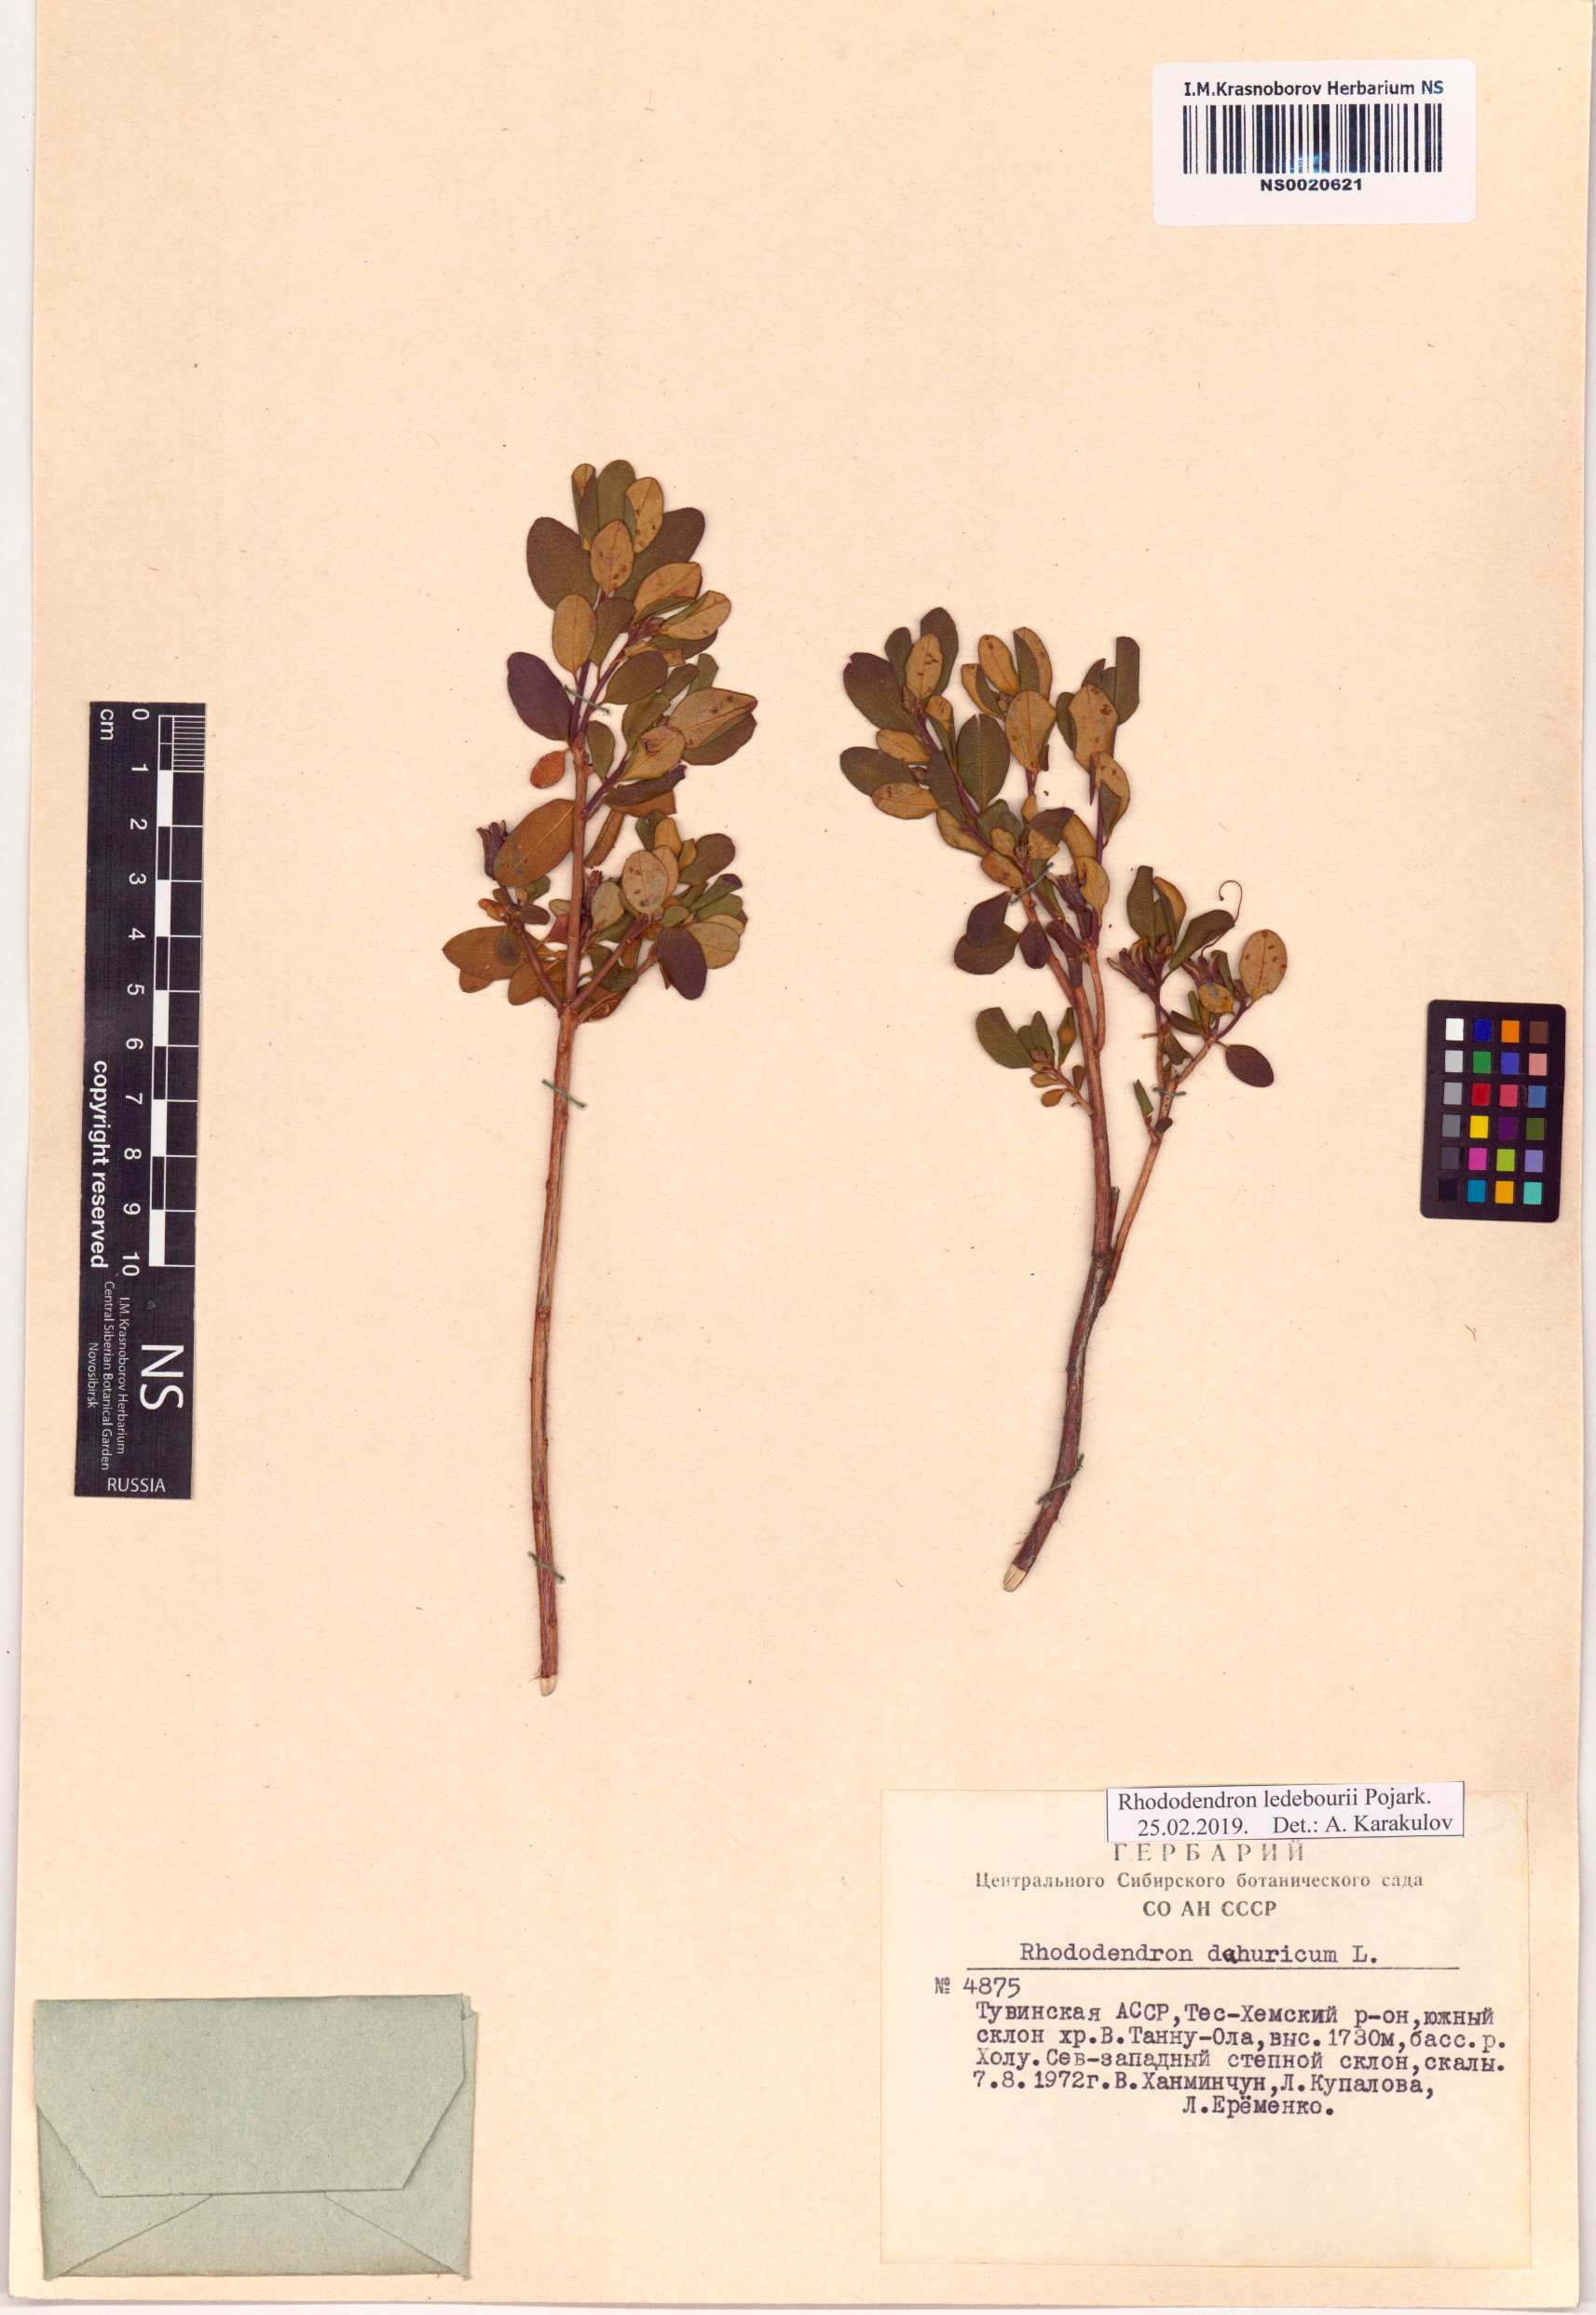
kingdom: Plantae
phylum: Tracheophyta
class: Magnoliopsida
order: Ericales
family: Ericaceae
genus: Rhododendron
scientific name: Rhododendron dauricum
